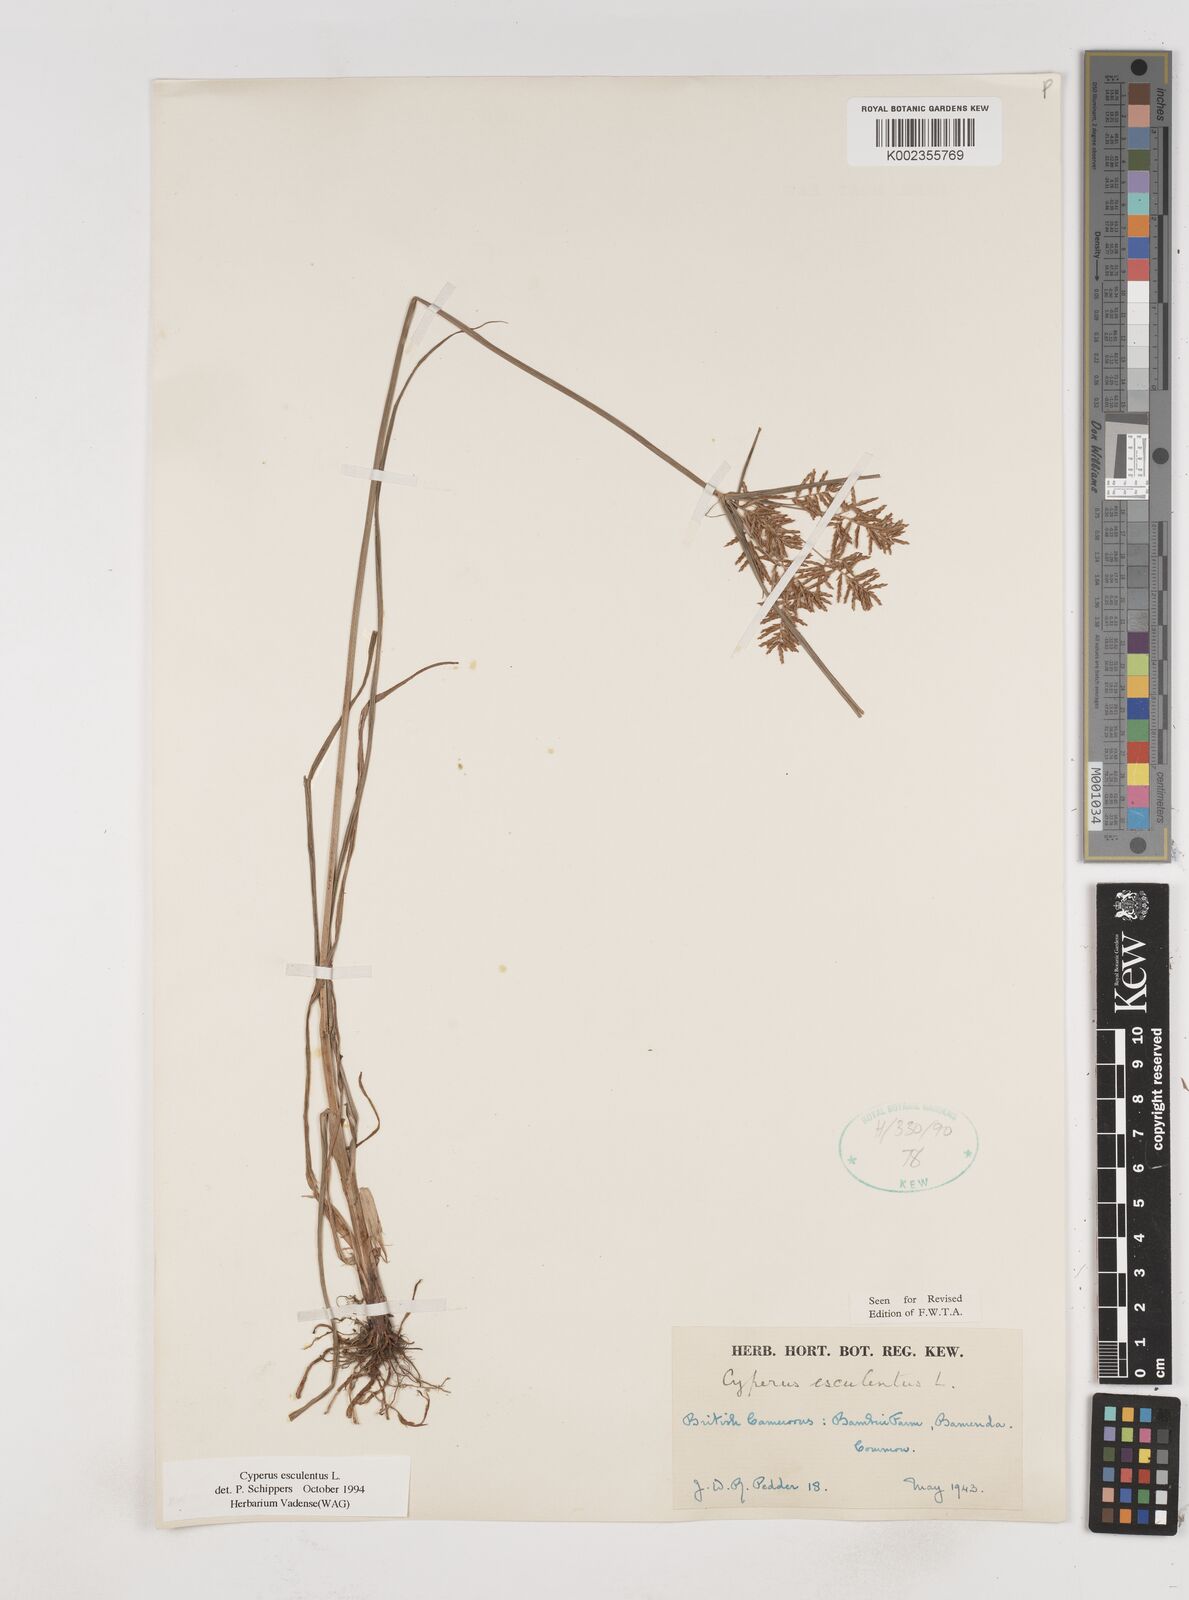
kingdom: Plantae
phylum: Tracheophyta
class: Liliopsida
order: Poales
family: Cyperaceae
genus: Cyperus
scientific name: Cyperus esculentus
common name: Yellow nutsedge
